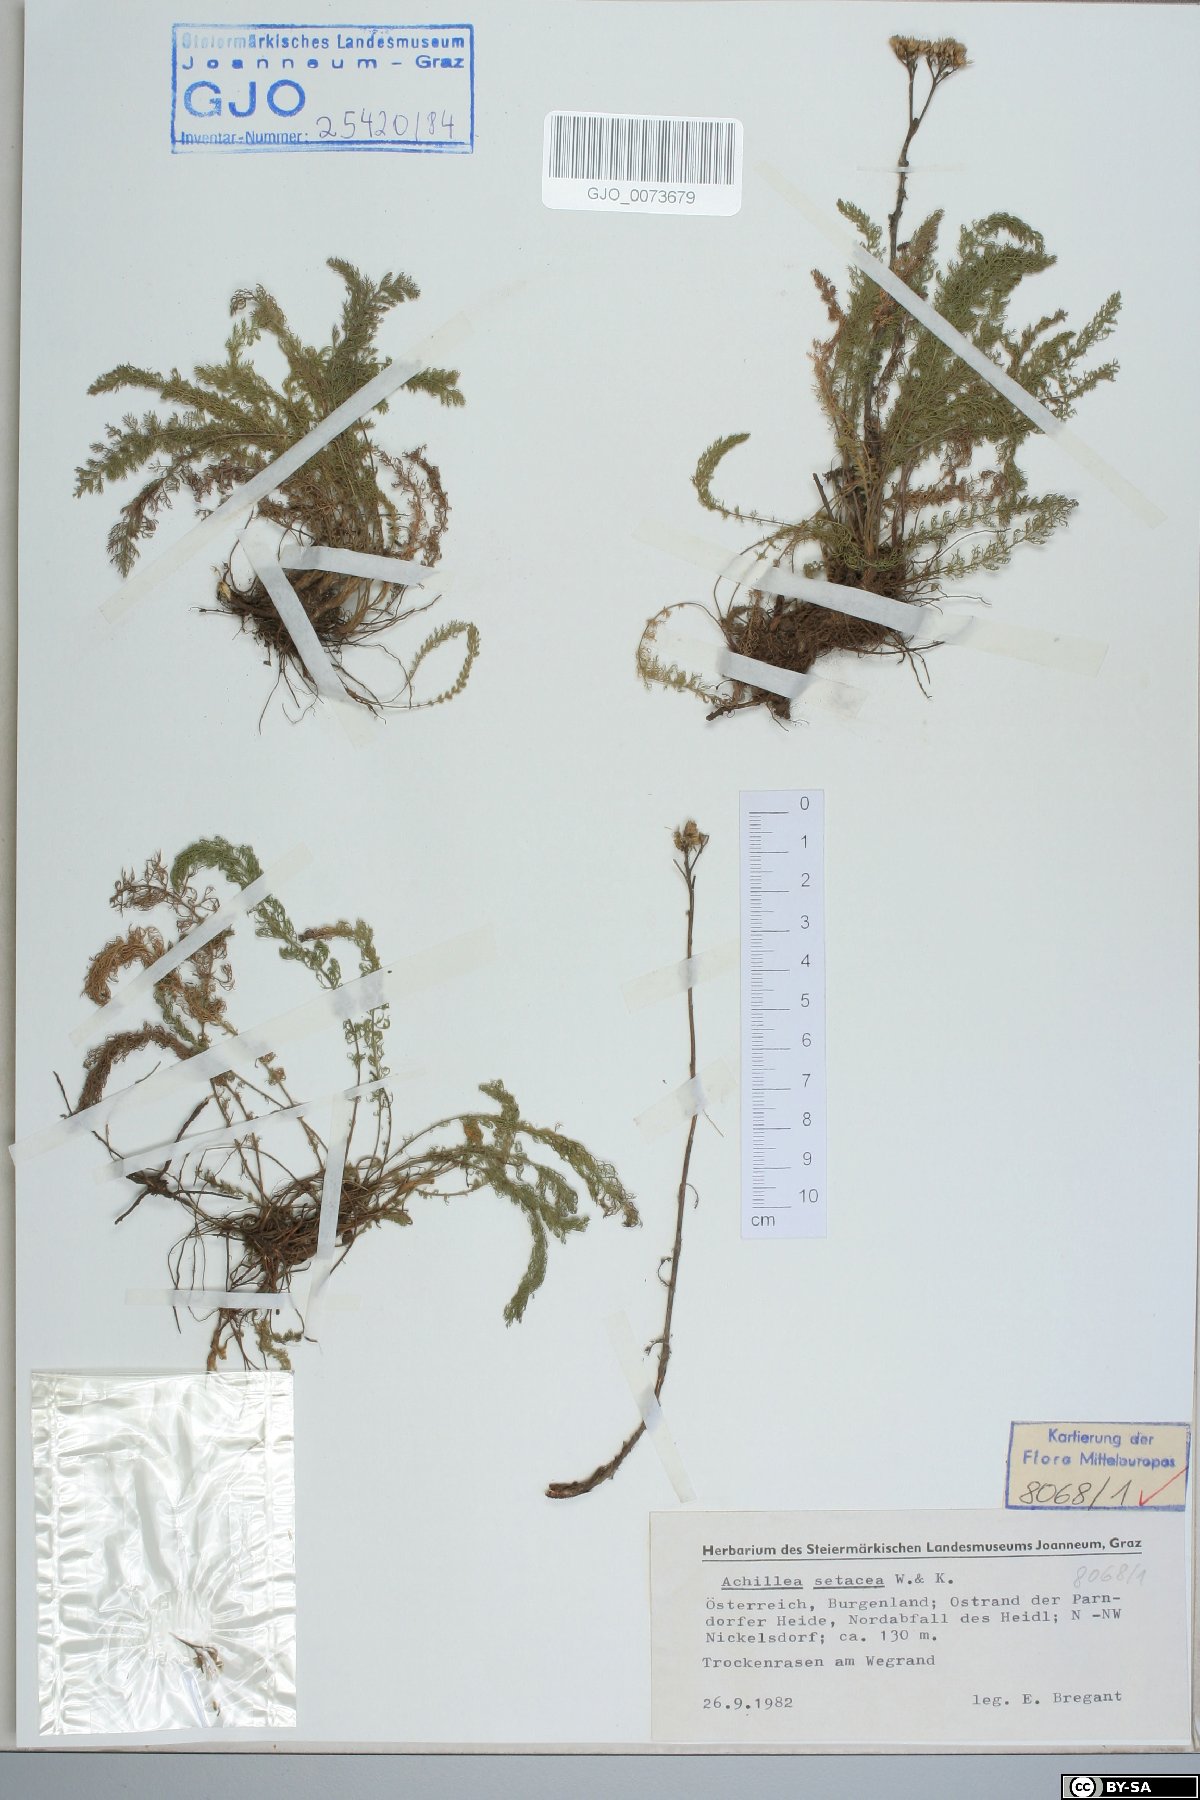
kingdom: Plantae
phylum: Tracheophyta
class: Magnoliopsida
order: Asterales
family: Asteraceae
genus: Achillea
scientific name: Achillea setacea
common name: Bristly yarrow
